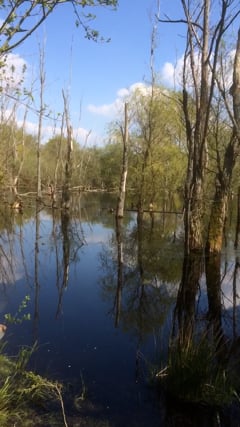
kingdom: Animalia
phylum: Chordata
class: Amphibia
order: Anura
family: Bombinatoridae
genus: Bombina
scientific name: Bombina bombina
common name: Fire-bellied toad
